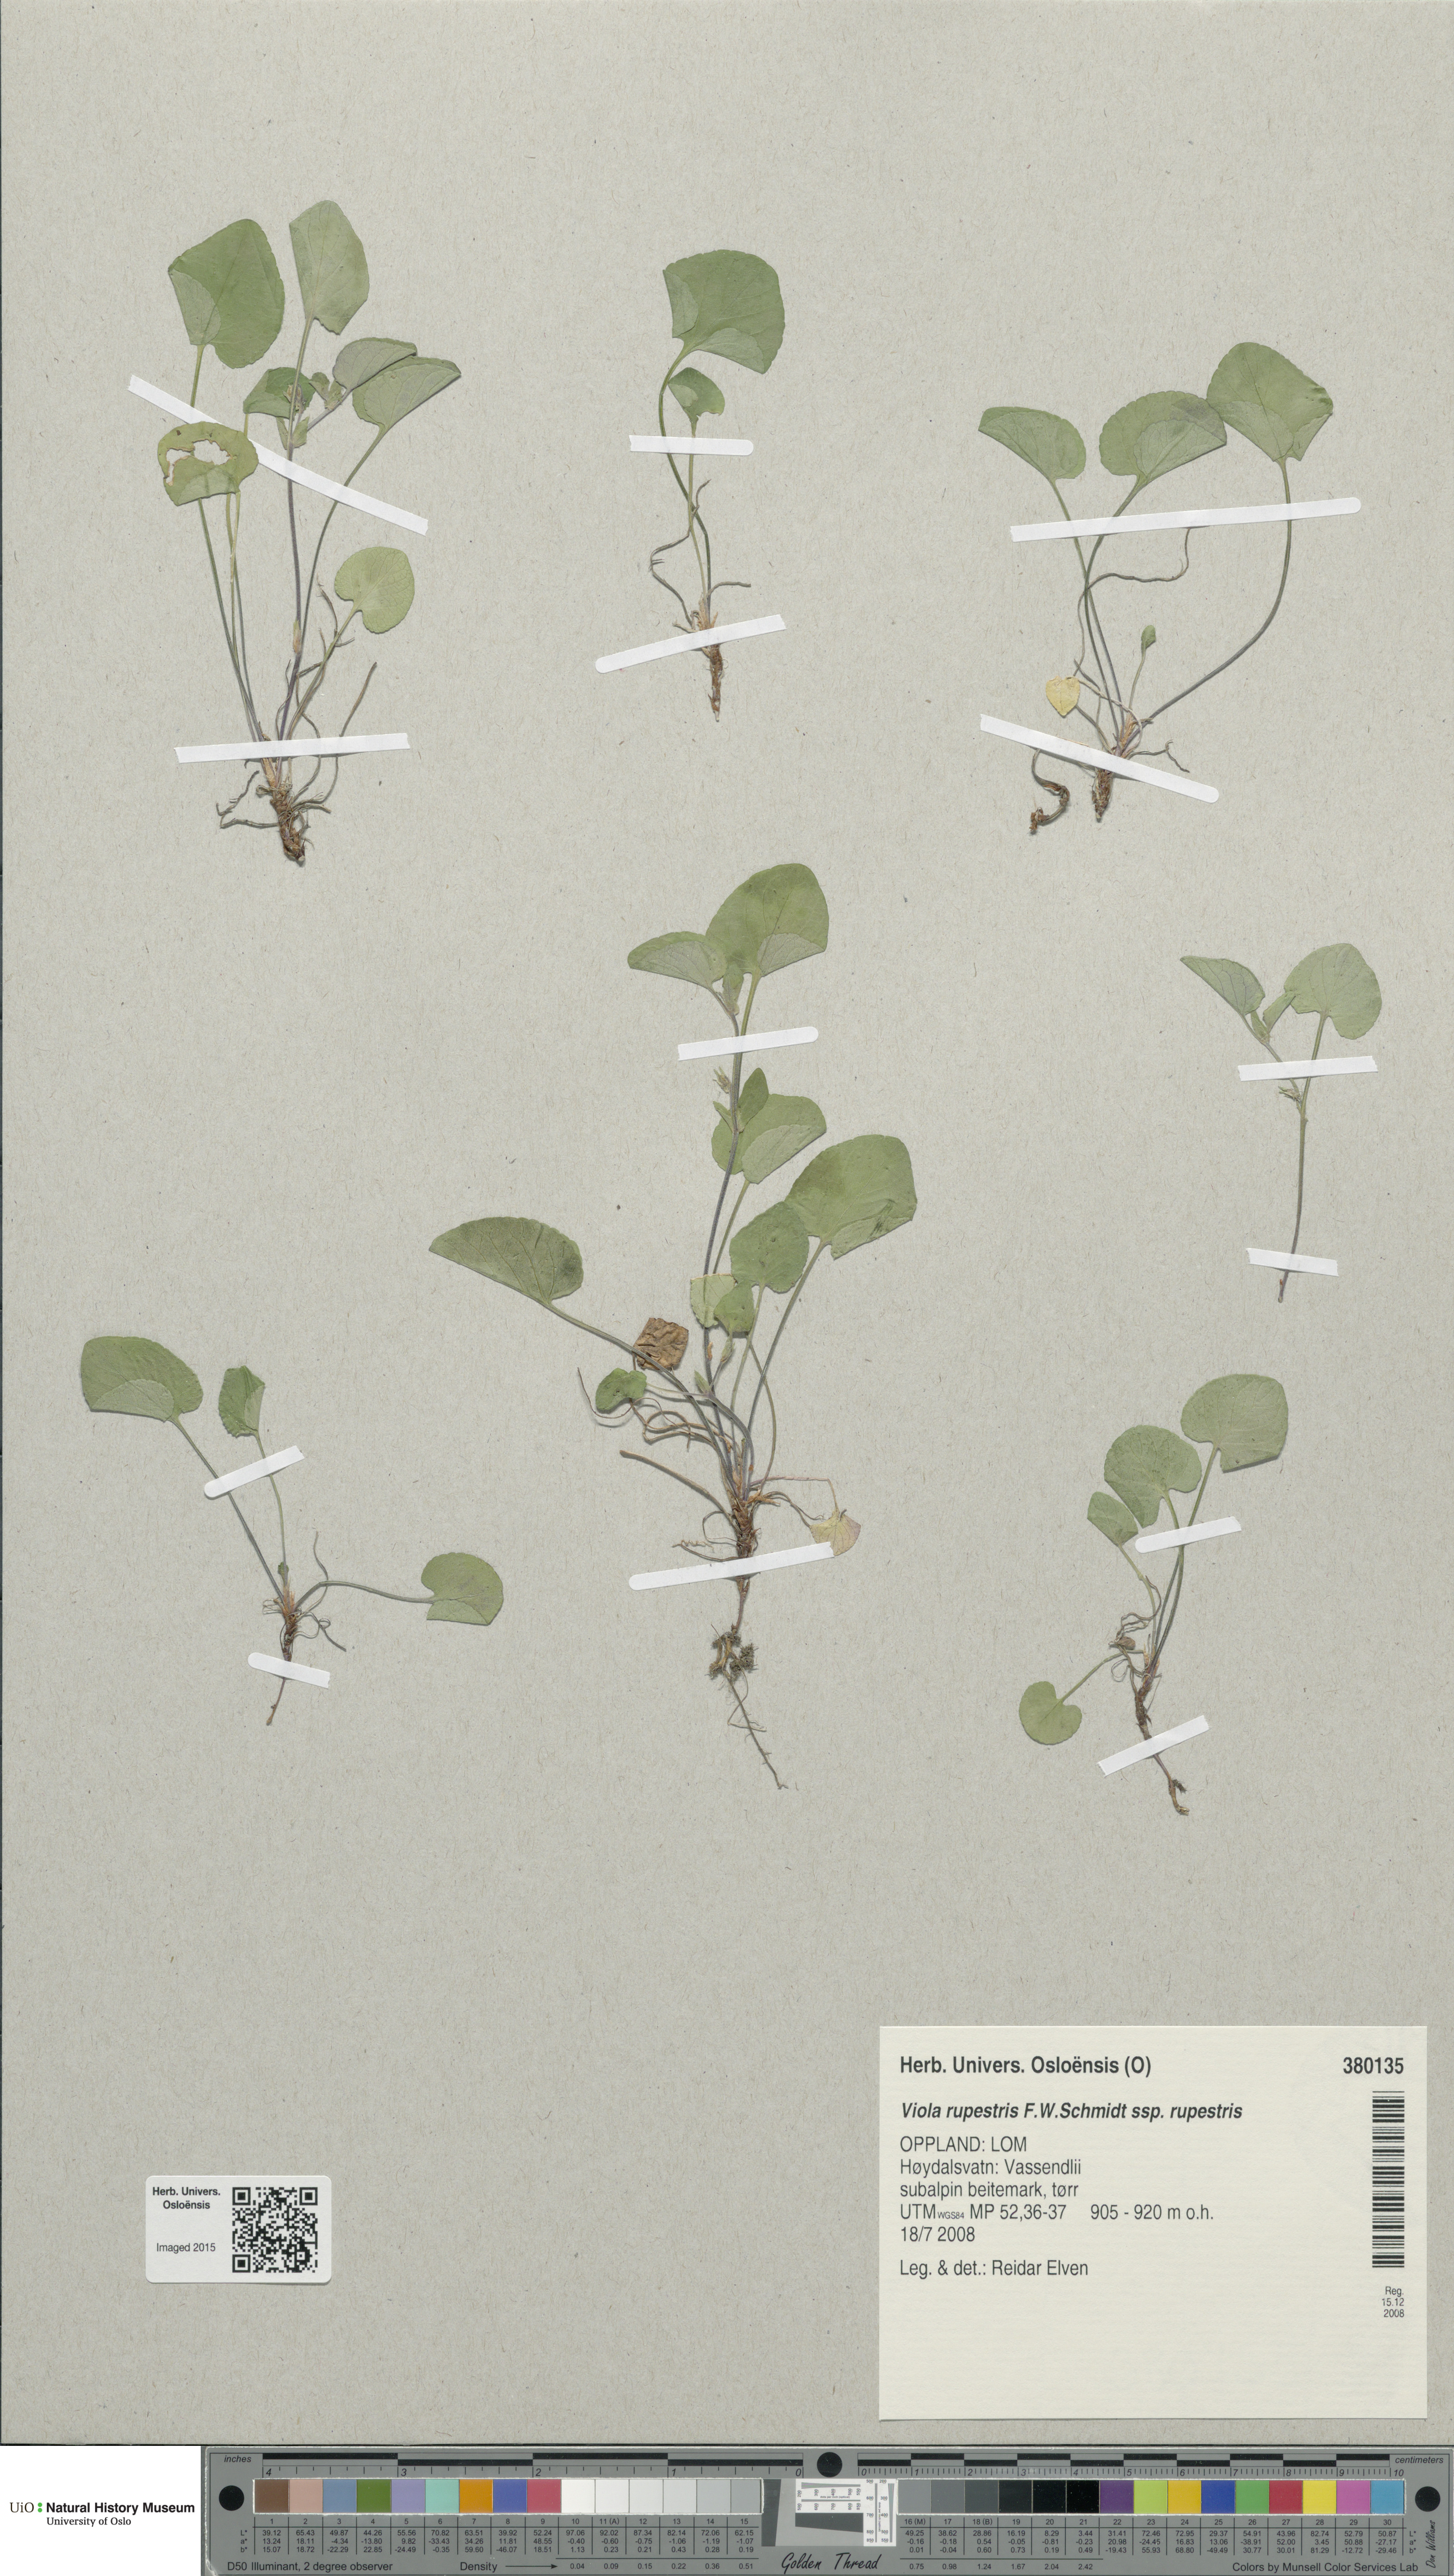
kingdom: Plantae
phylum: Tracheophyta
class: Magnoliopsida
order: Malpighiales
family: Violaceae
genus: Viola
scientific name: Viola rupestris
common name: Teesdale violet
